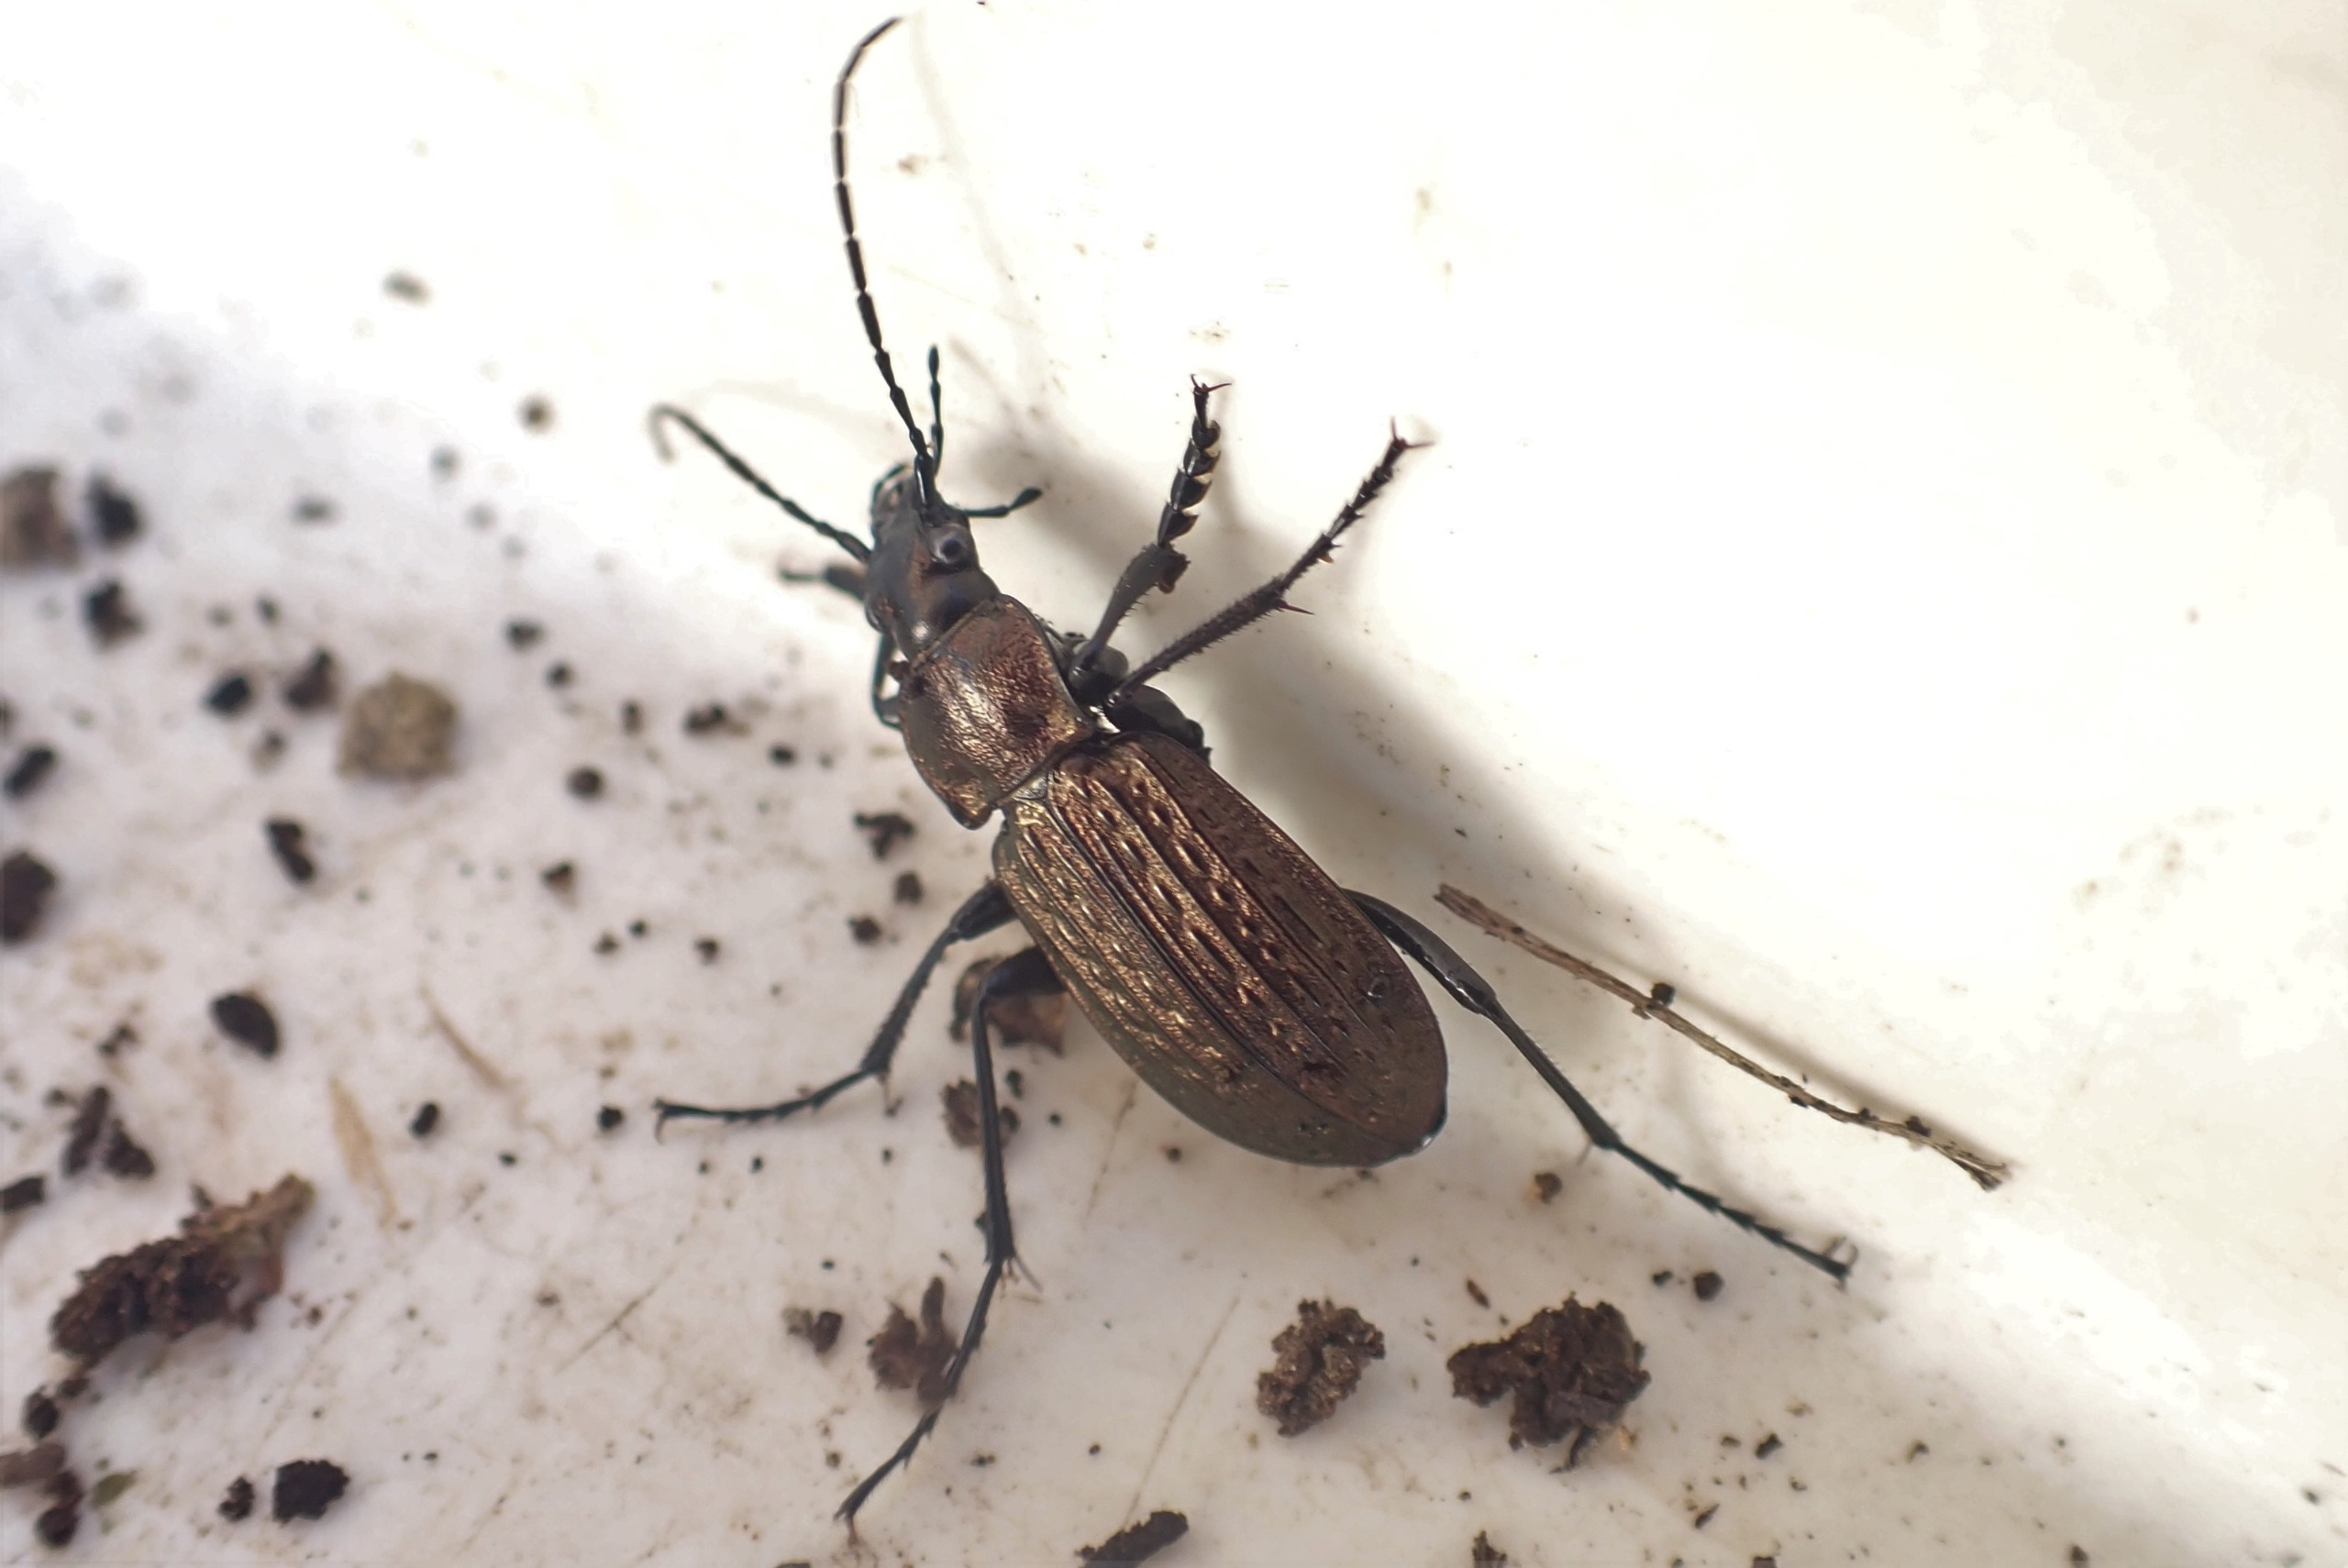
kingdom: Animalia
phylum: Arthropoda
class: Insecta
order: Coleoptera
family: Carabidae
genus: Carabus
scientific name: Carabus granulatus
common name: Kornet løber
